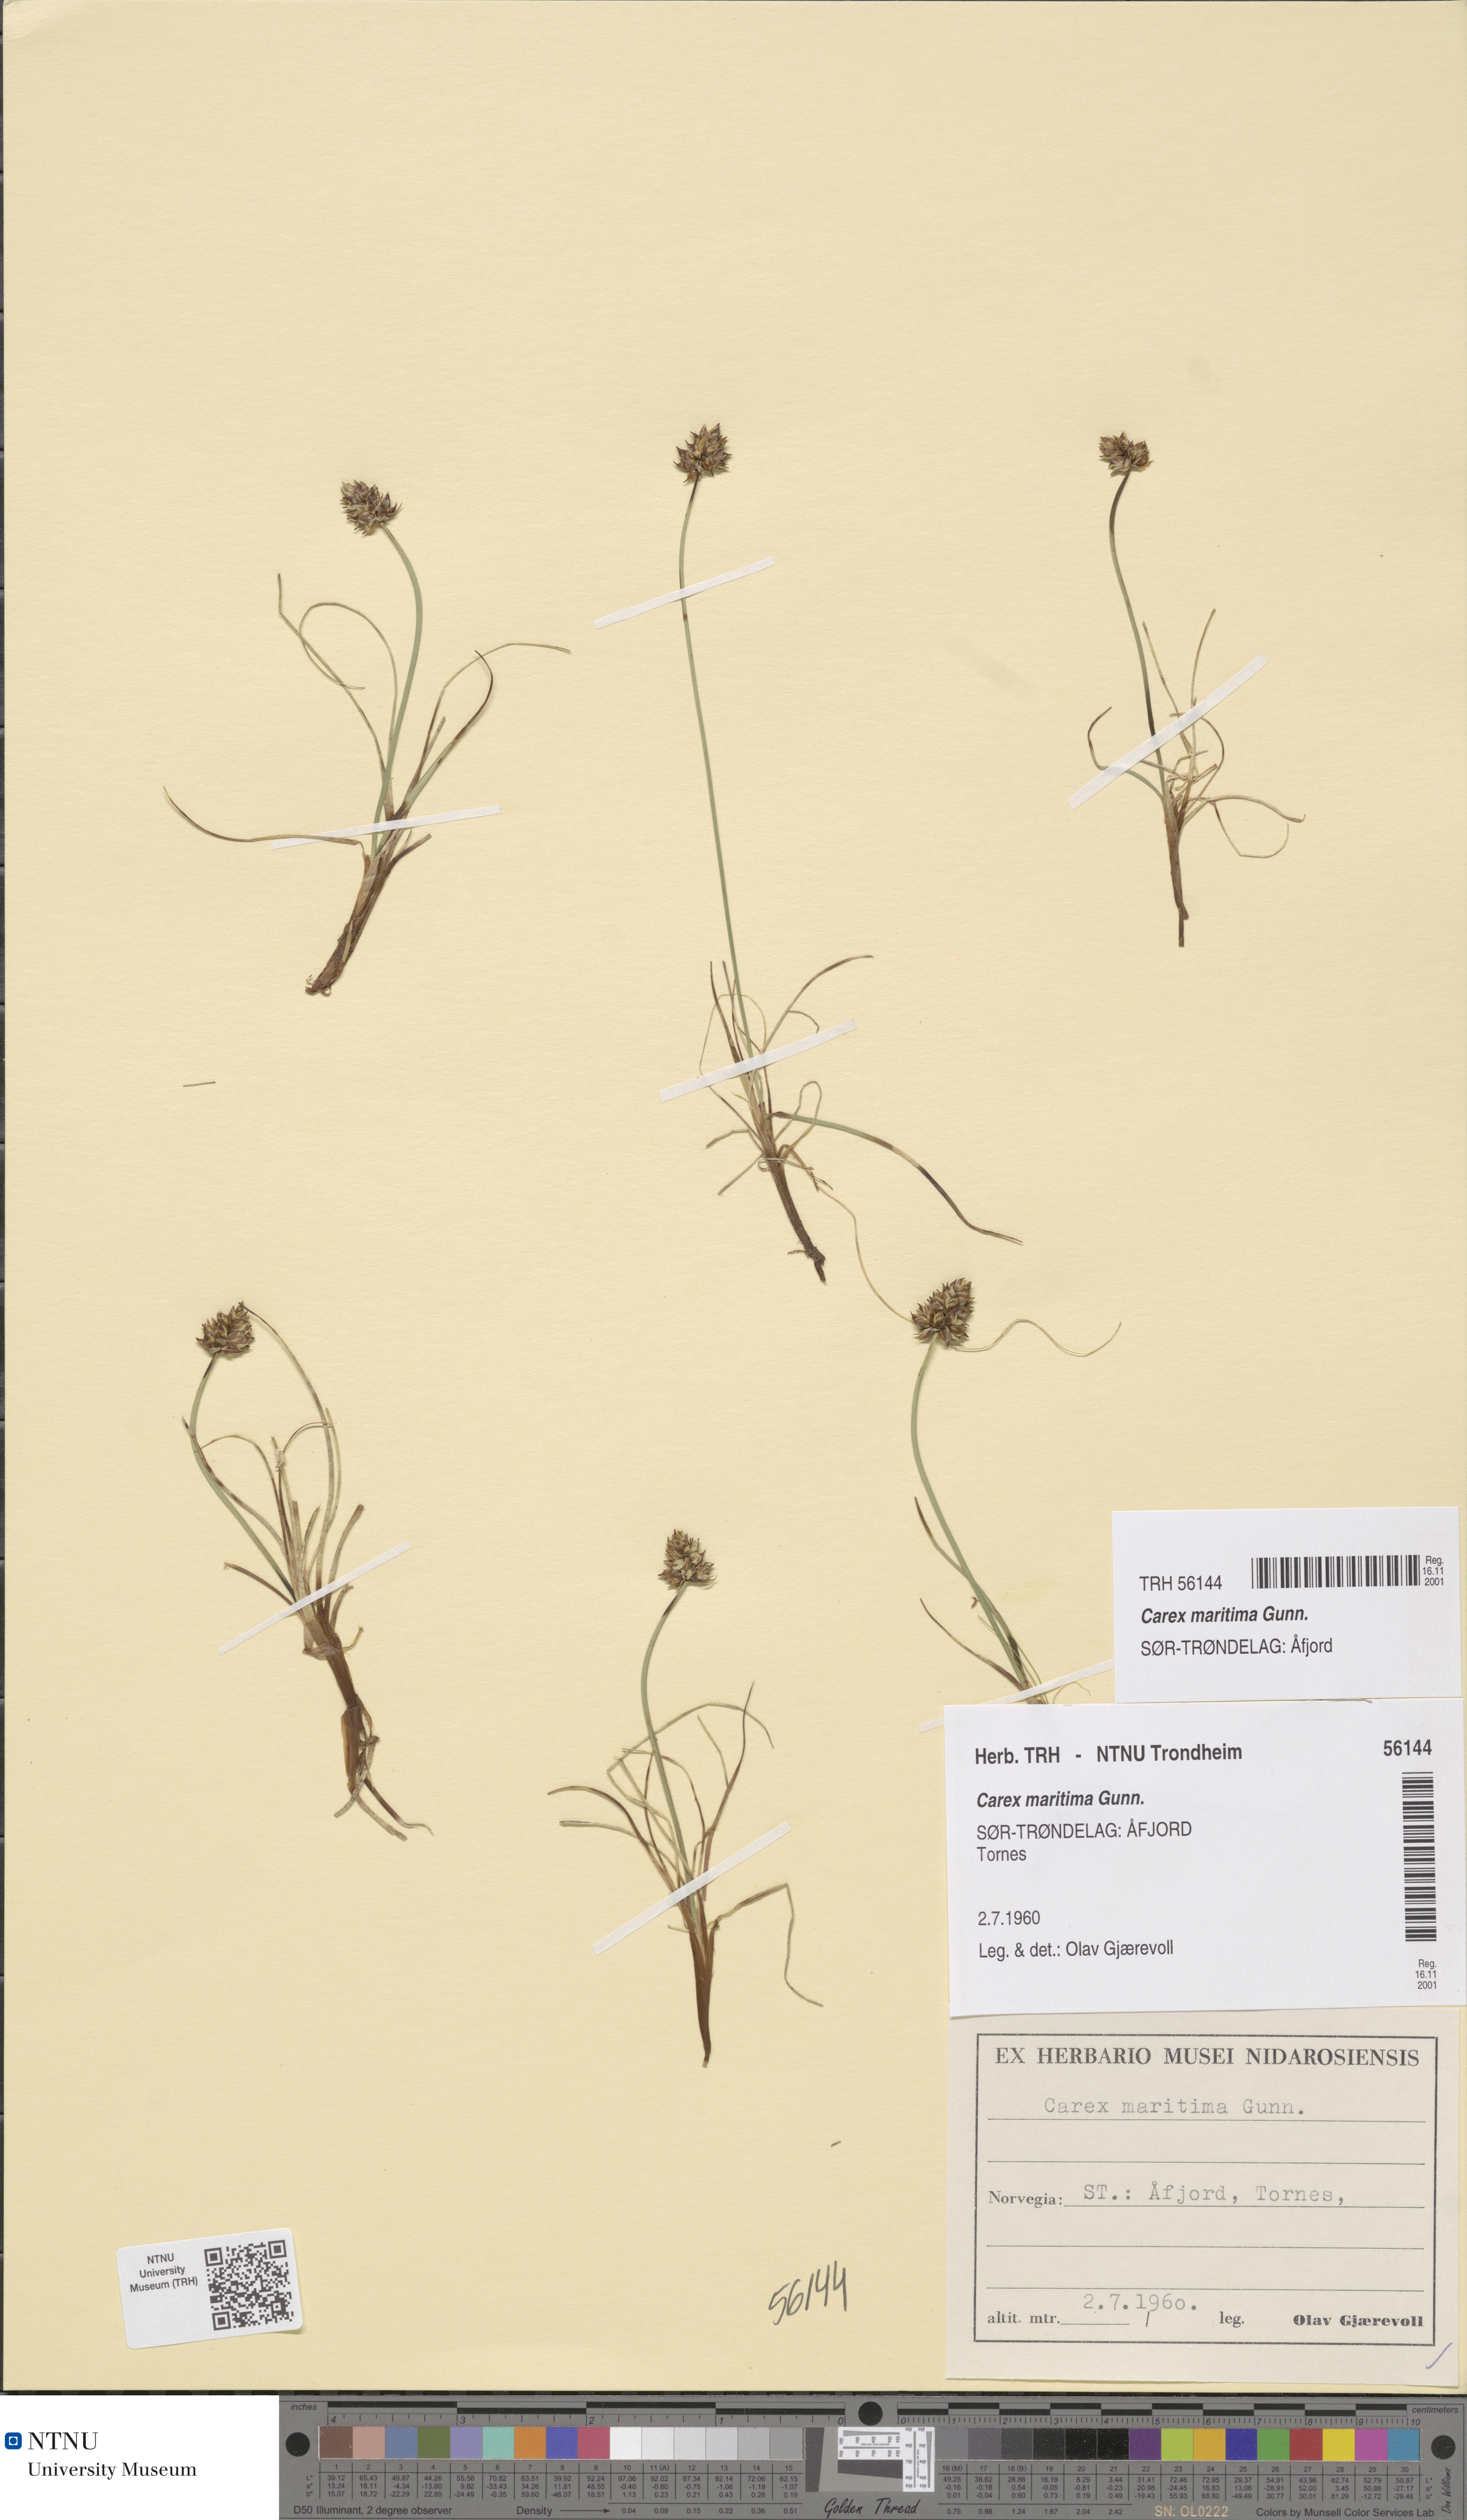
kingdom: Plantae
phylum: Tracheophyta
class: Liliopsida
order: Poales
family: Cyperaceae
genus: Carex
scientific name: Carex maritima
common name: Curved sedge
